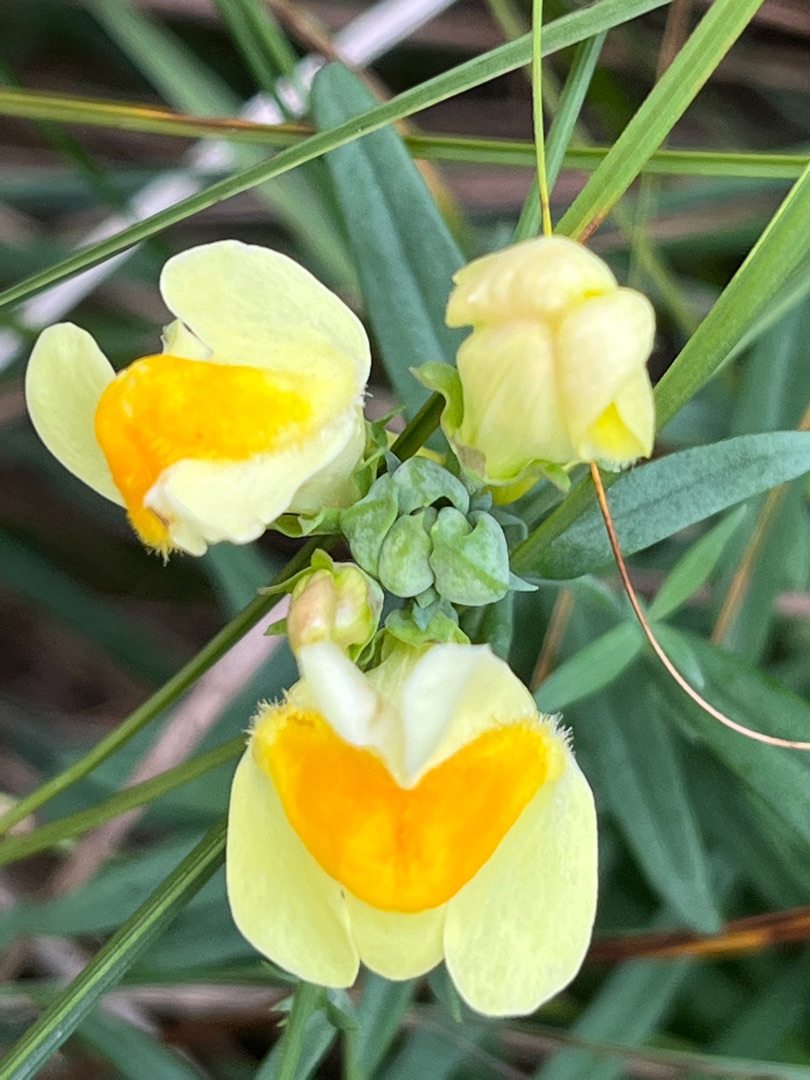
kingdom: Animalia
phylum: Arthropoda
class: Insecta
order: Diptera
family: Cecidomyiidae
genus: Diodaulus
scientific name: Diodaulus linariae
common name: Torskemundgalmyg
